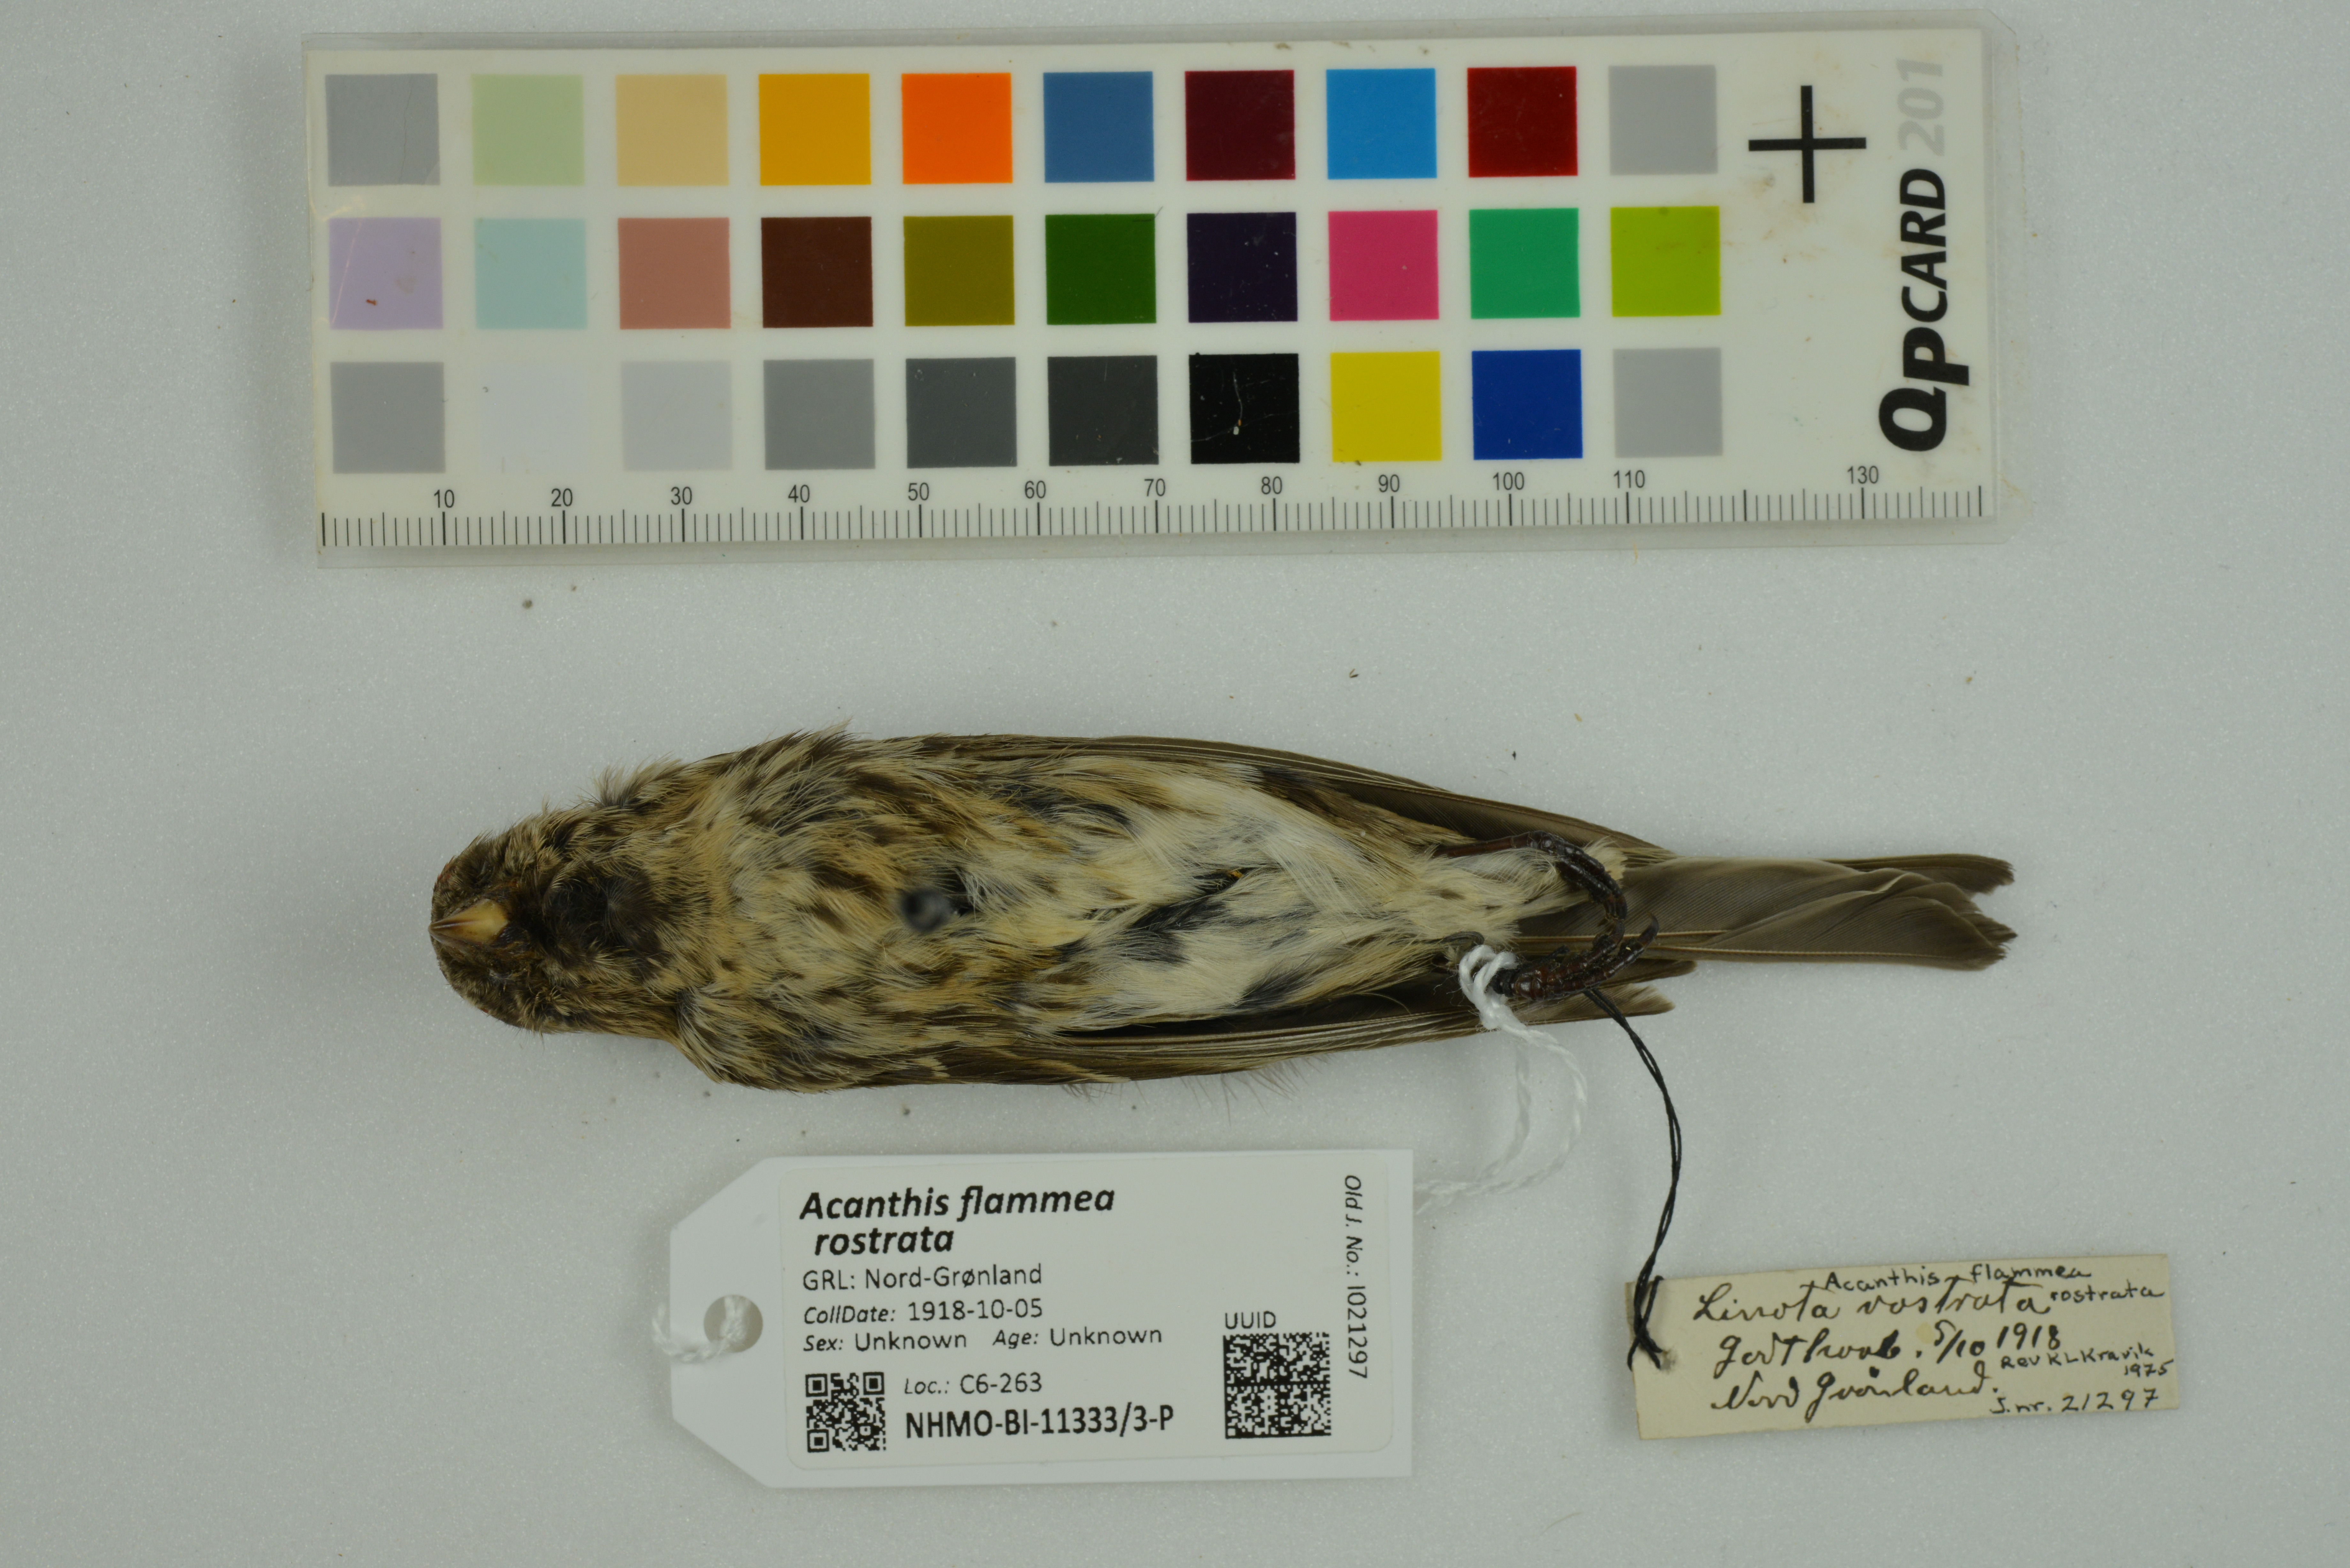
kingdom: Animalia
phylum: Chordata
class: Aves
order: Passeriformes
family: Fringillidae
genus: Acanthis
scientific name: Acanthis flammea
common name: Common redpoll
